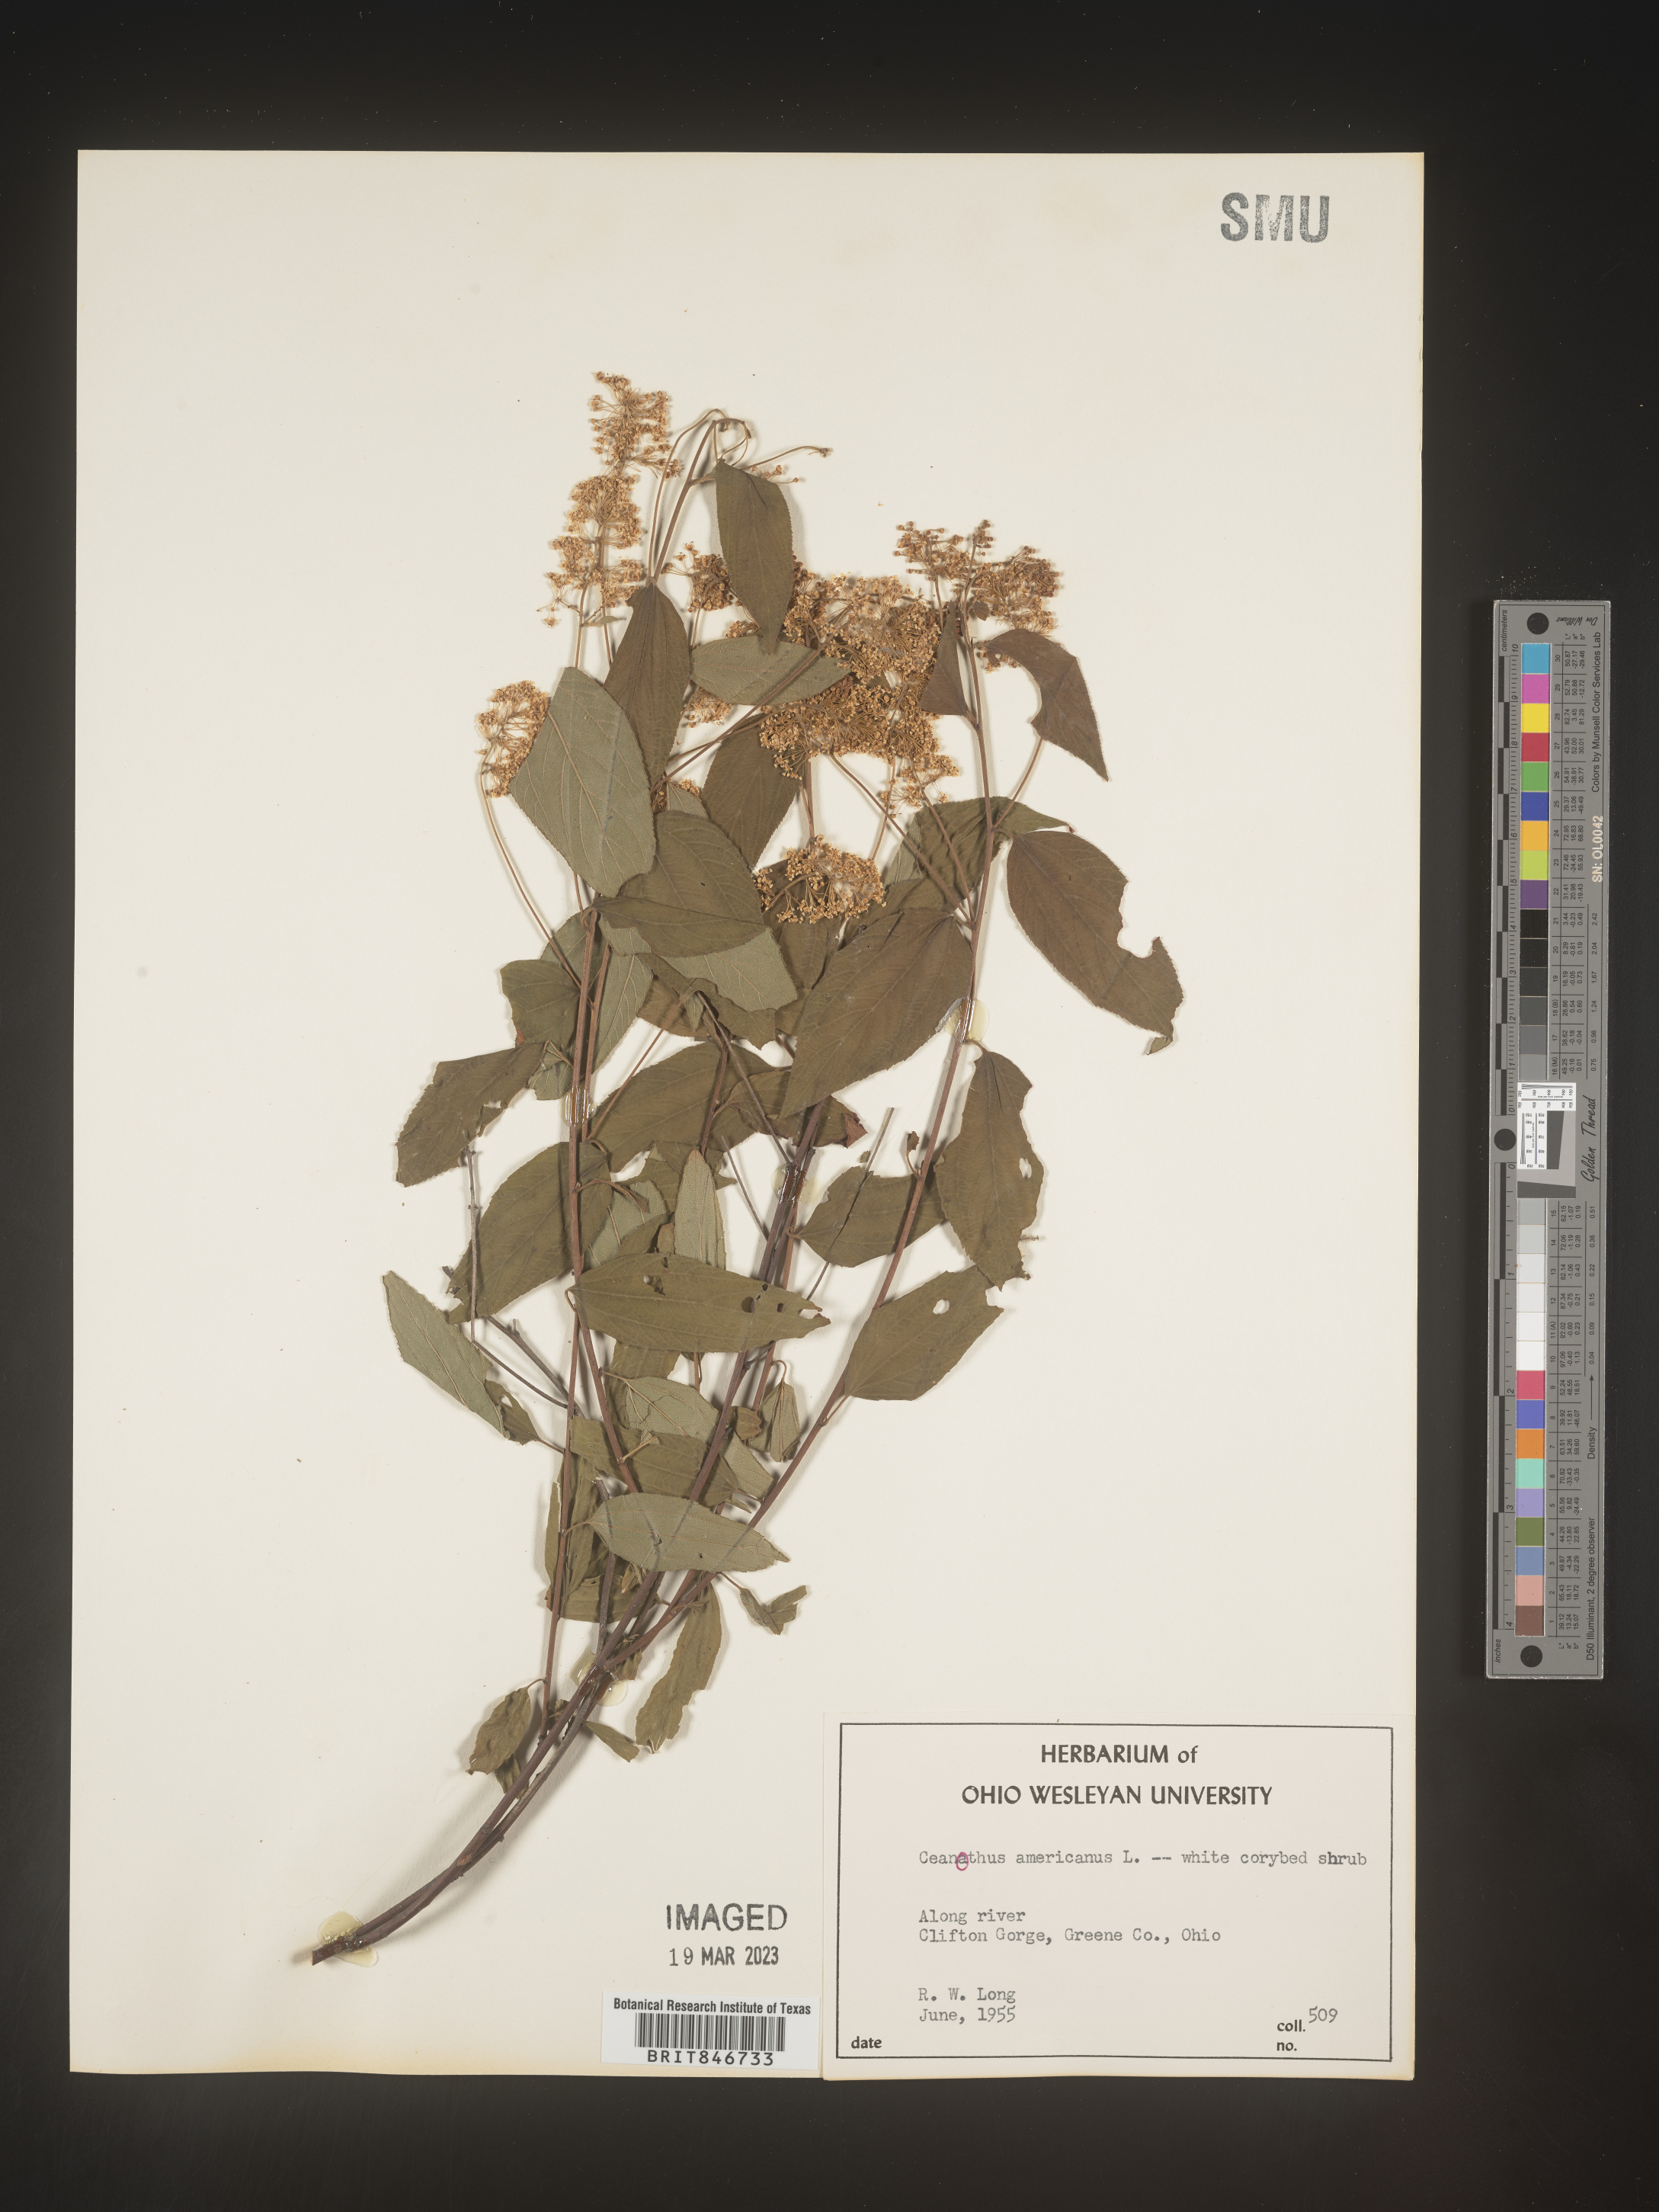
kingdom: Plantae
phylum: Tracheophyta
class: Magnoliopsida
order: Rosales
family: Rhamnaceae
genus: Ceanothus
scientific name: Ceanothus americanus
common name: Redroot
